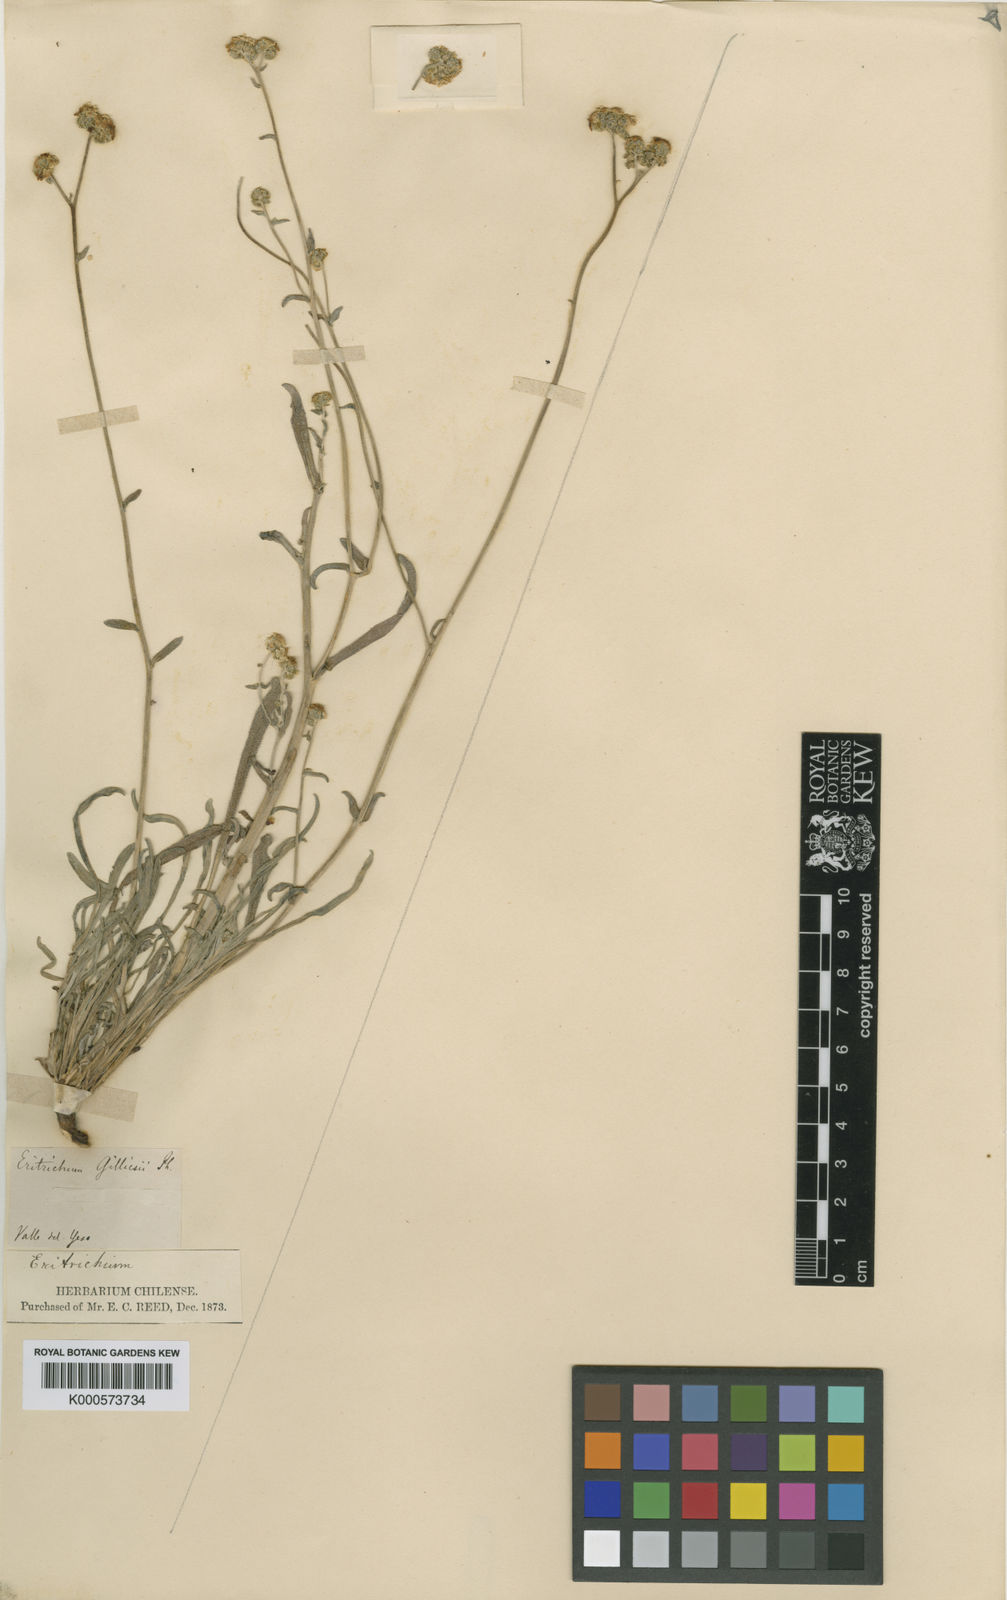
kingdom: Plantae
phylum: Tracheophyta
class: Magnoliopsida
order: Boraginales
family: Boraginaceae
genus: Cryptantha
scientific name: Cryptantha alyssoides
